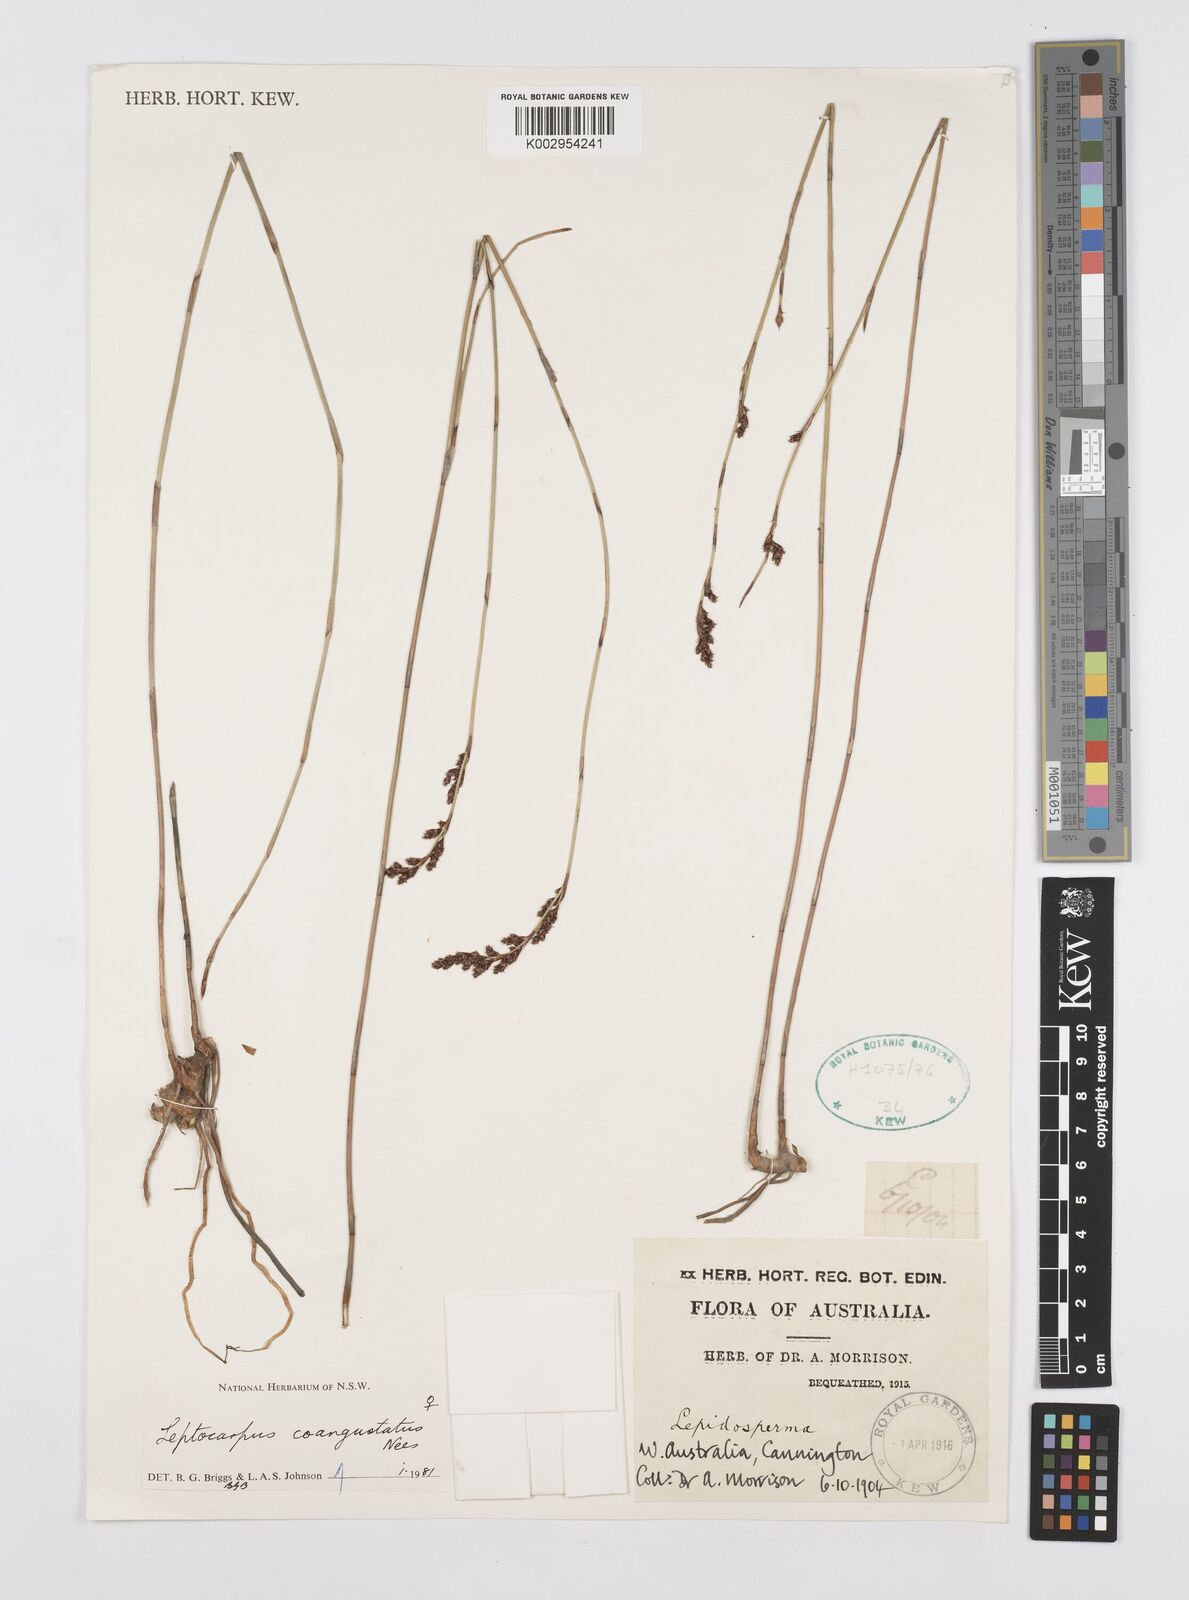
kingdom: Plantae
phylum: Tracheophyta
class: Liliopsida
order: Poales
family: Restionaceae
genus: Leptocarpus
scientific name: Leptocarpus coangustatus
